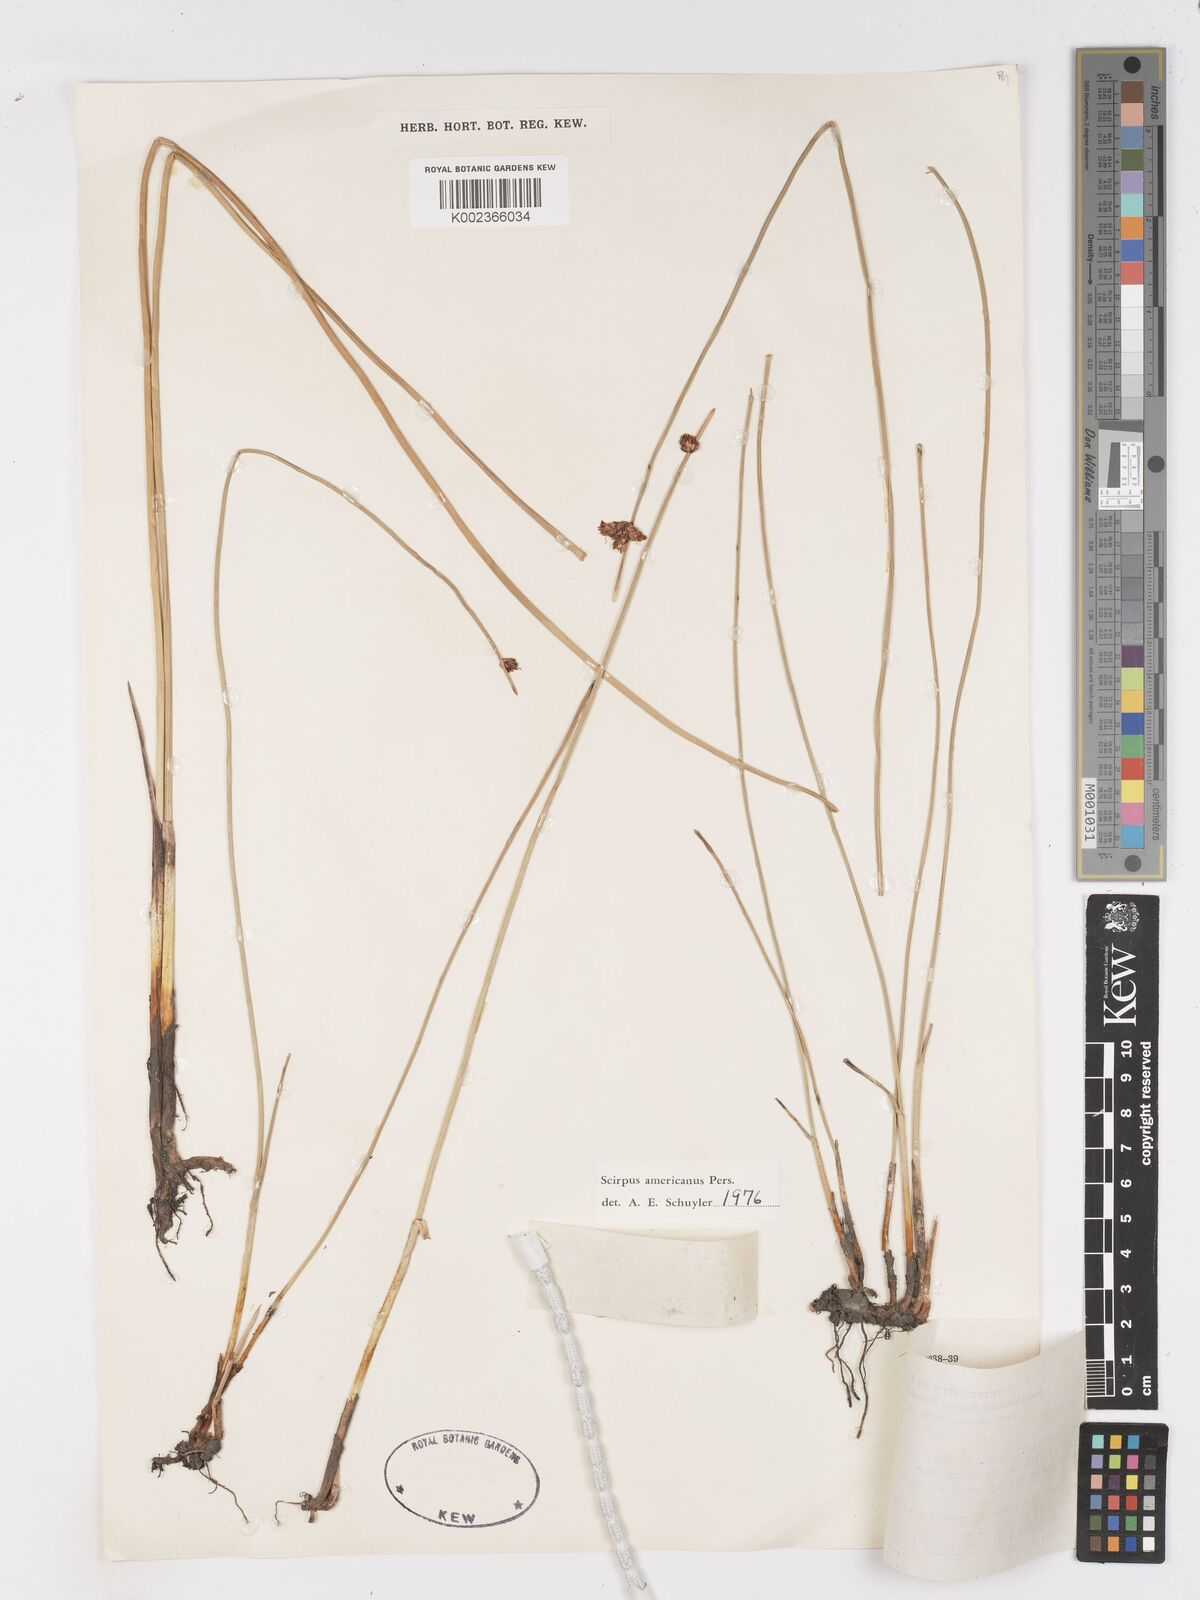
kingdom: Plantae
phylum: Tracheophyta
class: Liliopsida
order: Poales
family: Cyperaceae
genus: Schoenoplectus
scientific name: Schoenoplectus americanus
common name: American three-square bulrush
